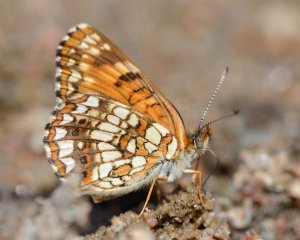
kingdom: Animalia
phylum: Arthropoda
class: Insecta
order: Lepidoptera
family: Nymphalidae
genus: Chlosyne
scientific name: Chlosyne harrisii
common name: Harris's Checkerspot
